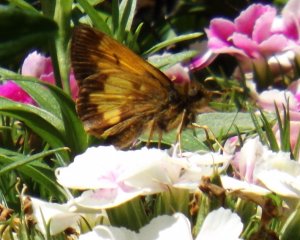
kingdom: Animalia
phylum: Arthropoda
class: Insecta
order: Lepidoptera
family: Hesperiidae
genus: Lon
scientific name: Lon hobomok
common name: Hobomok Skipper
